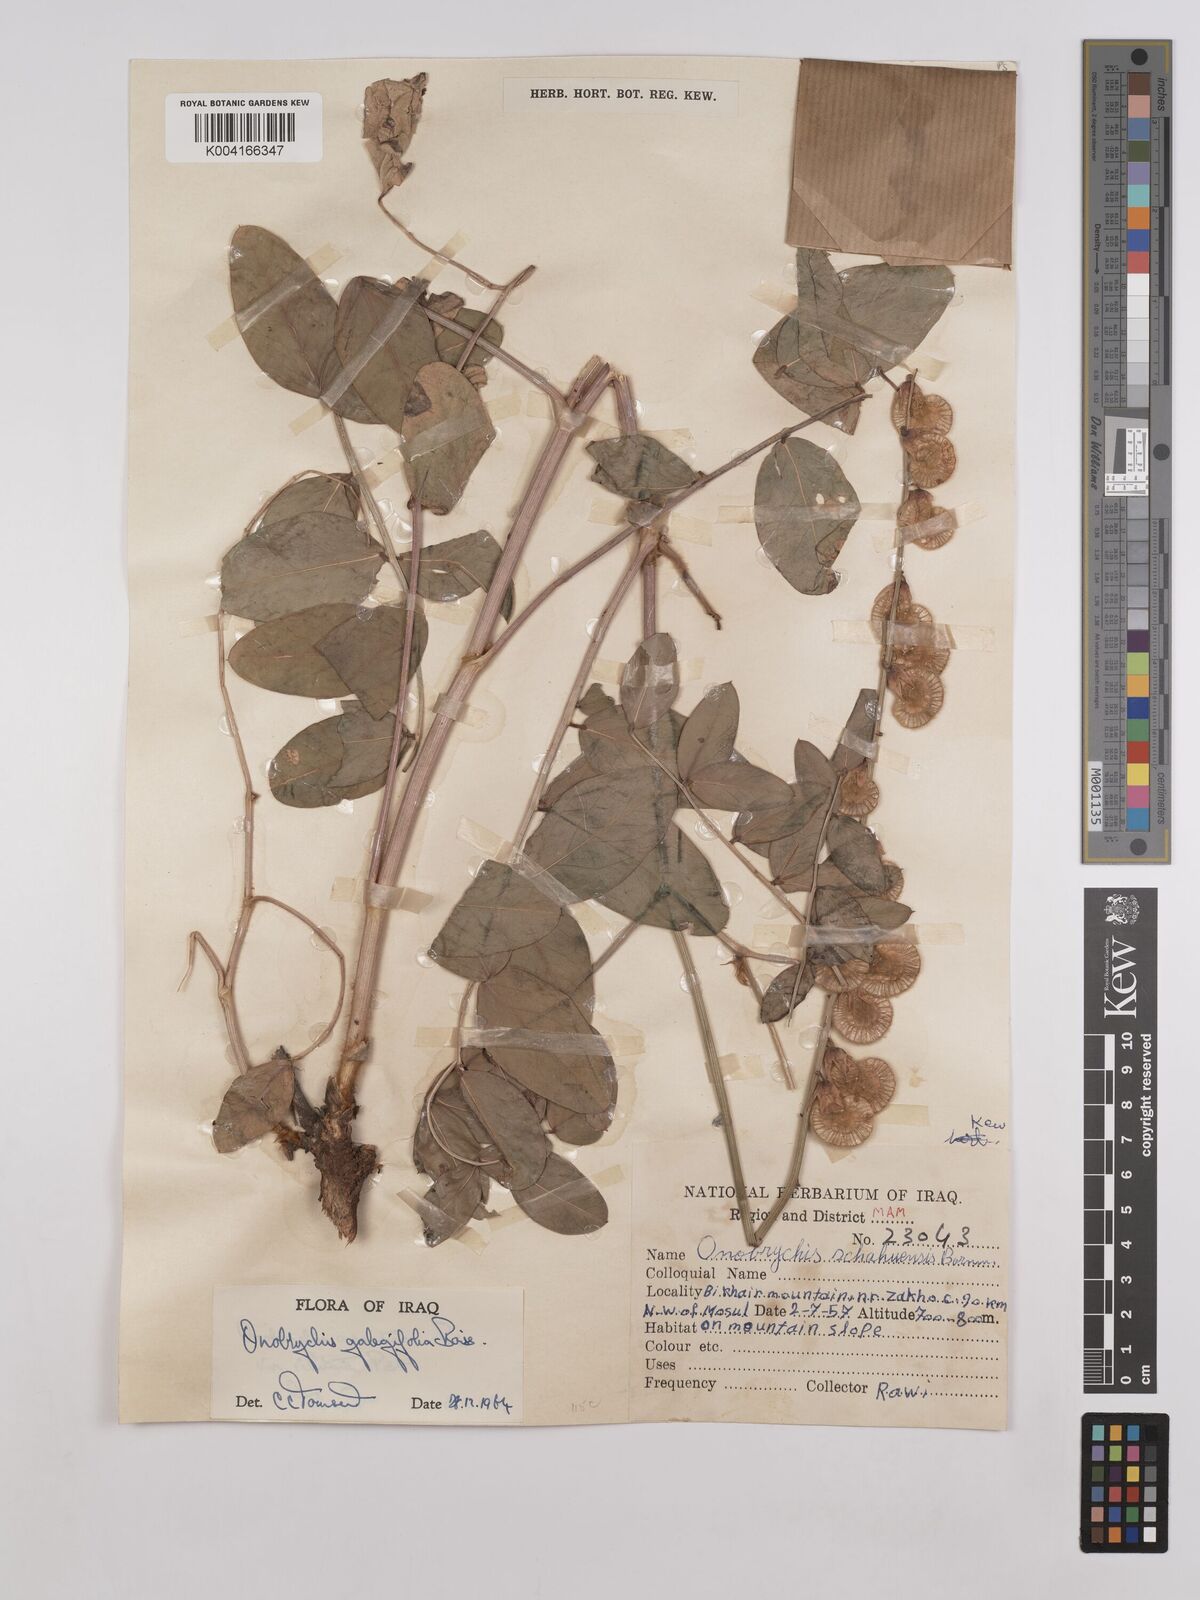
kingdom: Plantae
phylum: Tracheophyta
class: Magnoliopsida
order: Fabales
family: Fabaceae
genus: Onobrychis
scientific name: Onobrychis galegifolia
